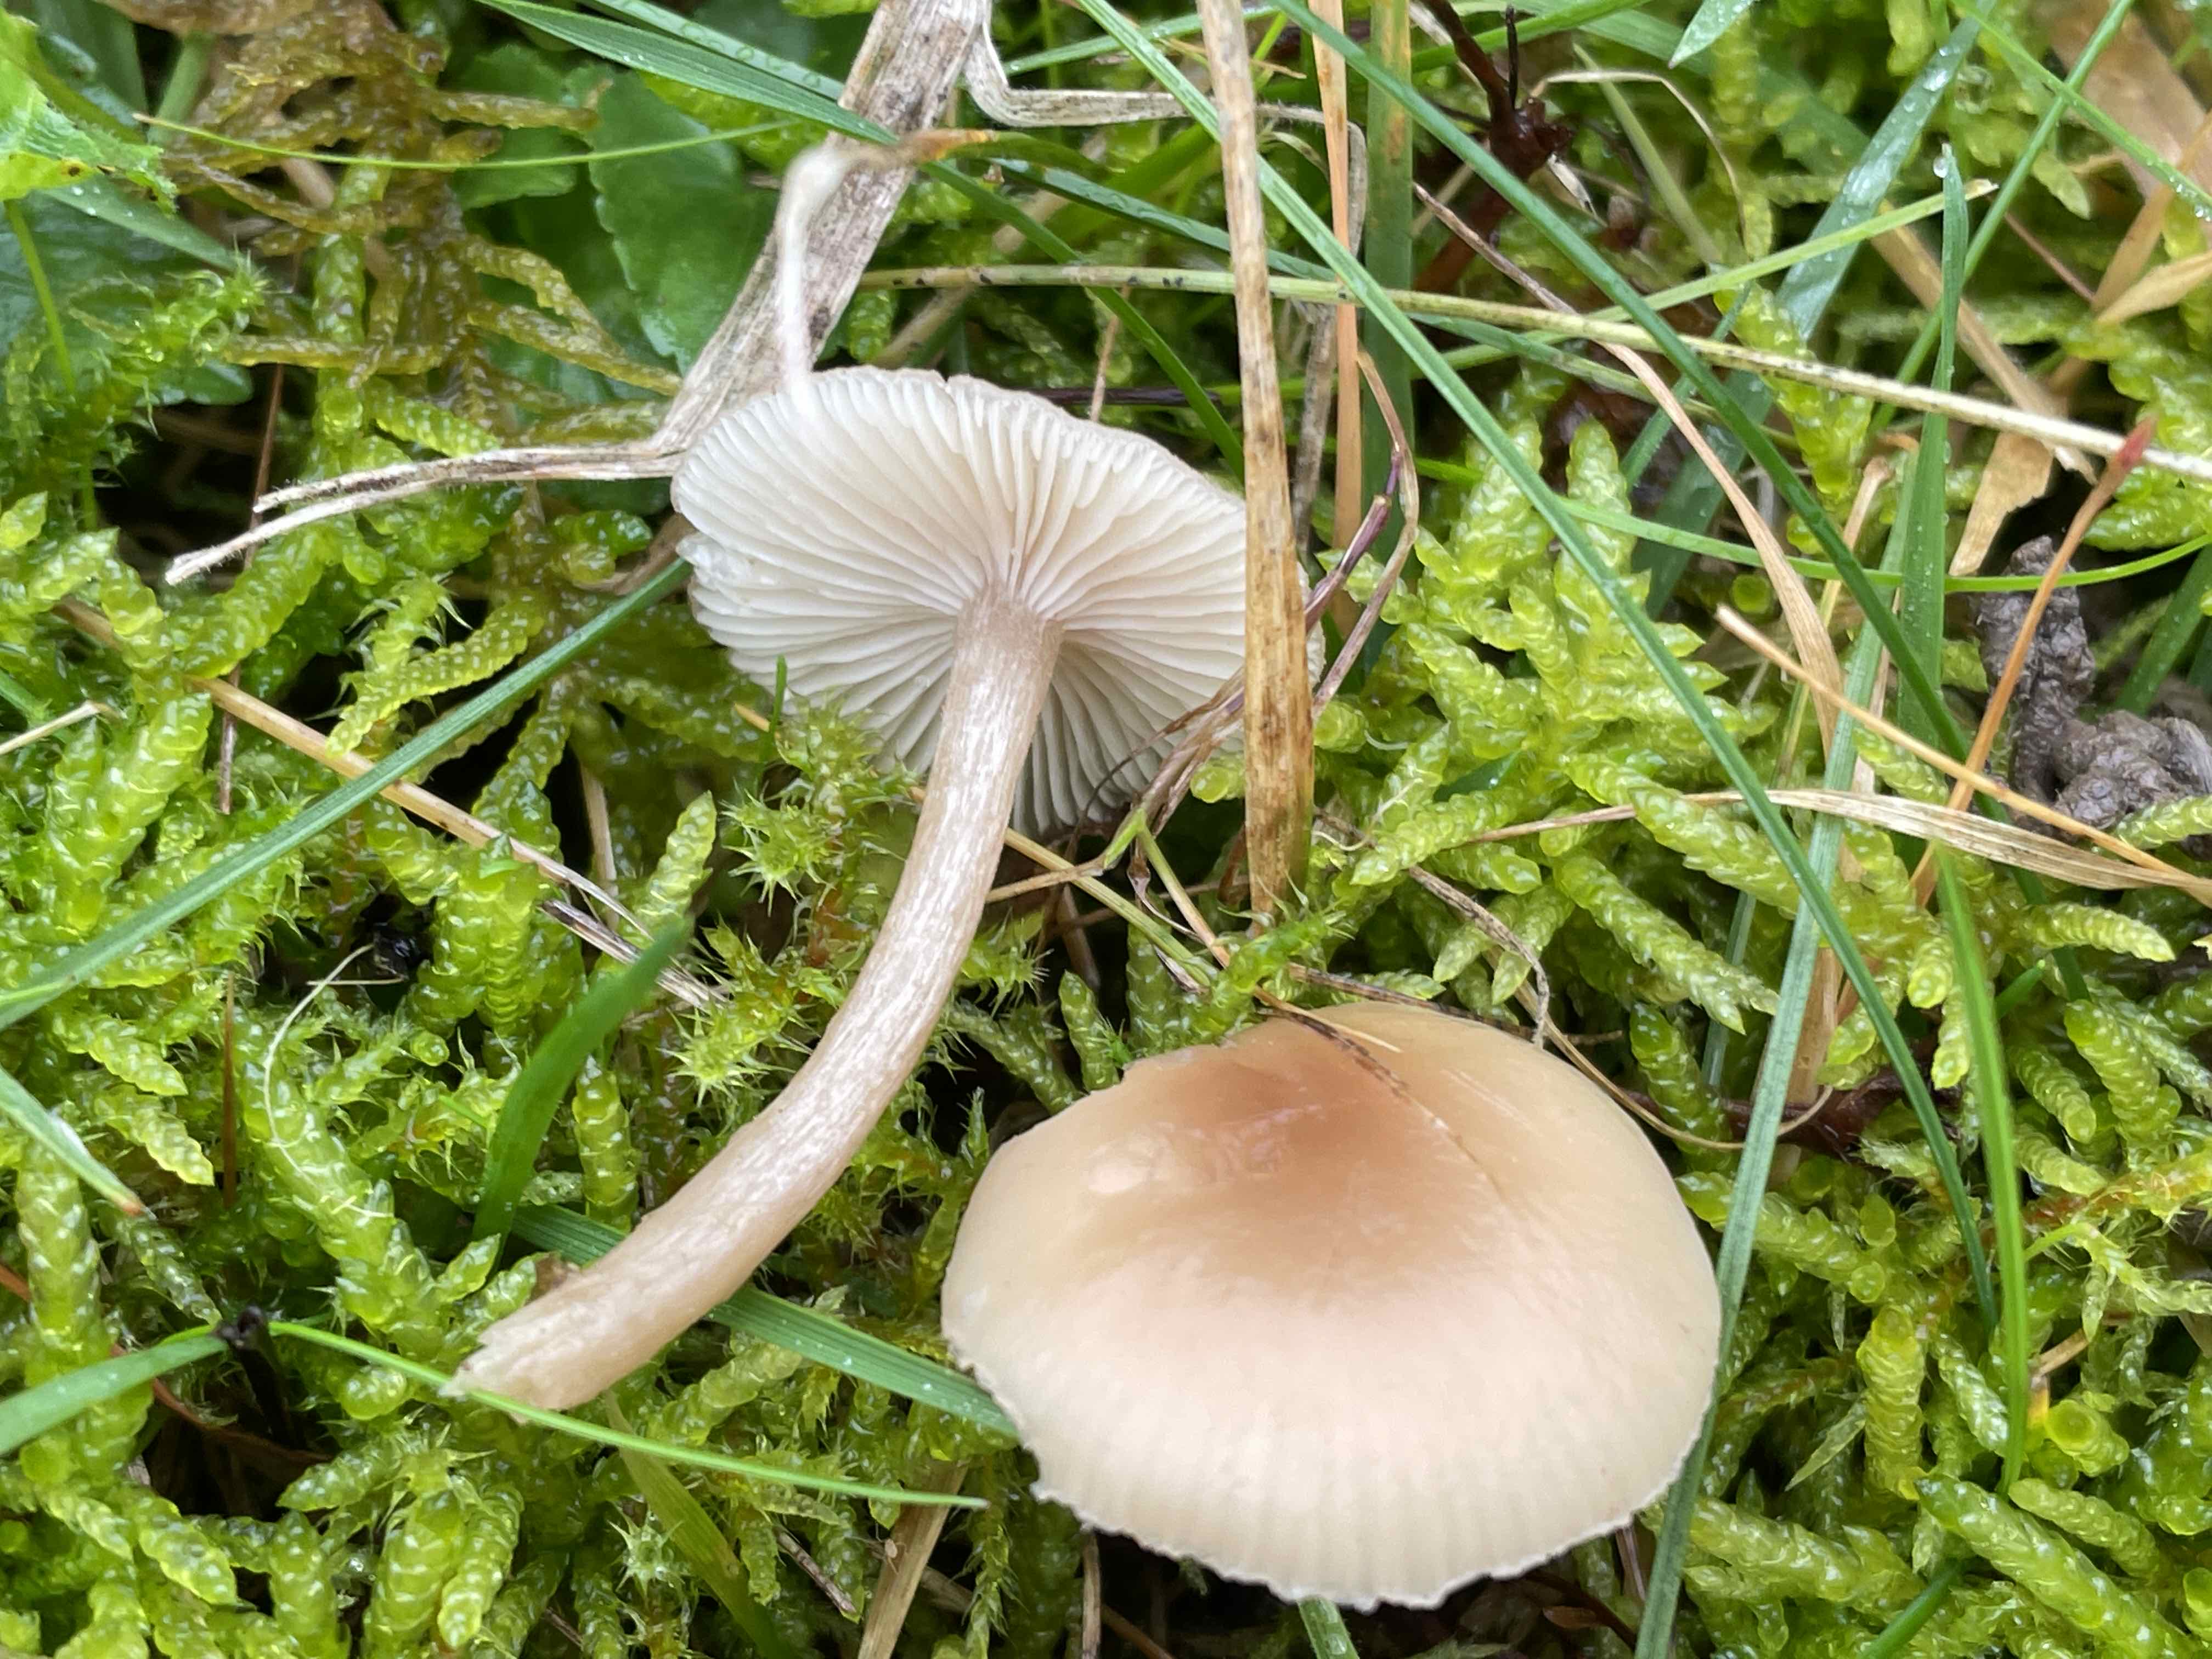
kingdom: Fungi
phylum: Basidiomycota
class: Agaricomycetes
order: Agaricales
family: Tricholomataceae
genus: Clitocybe
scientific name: Clitocybe fragrans
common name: vellugtende tragthat
